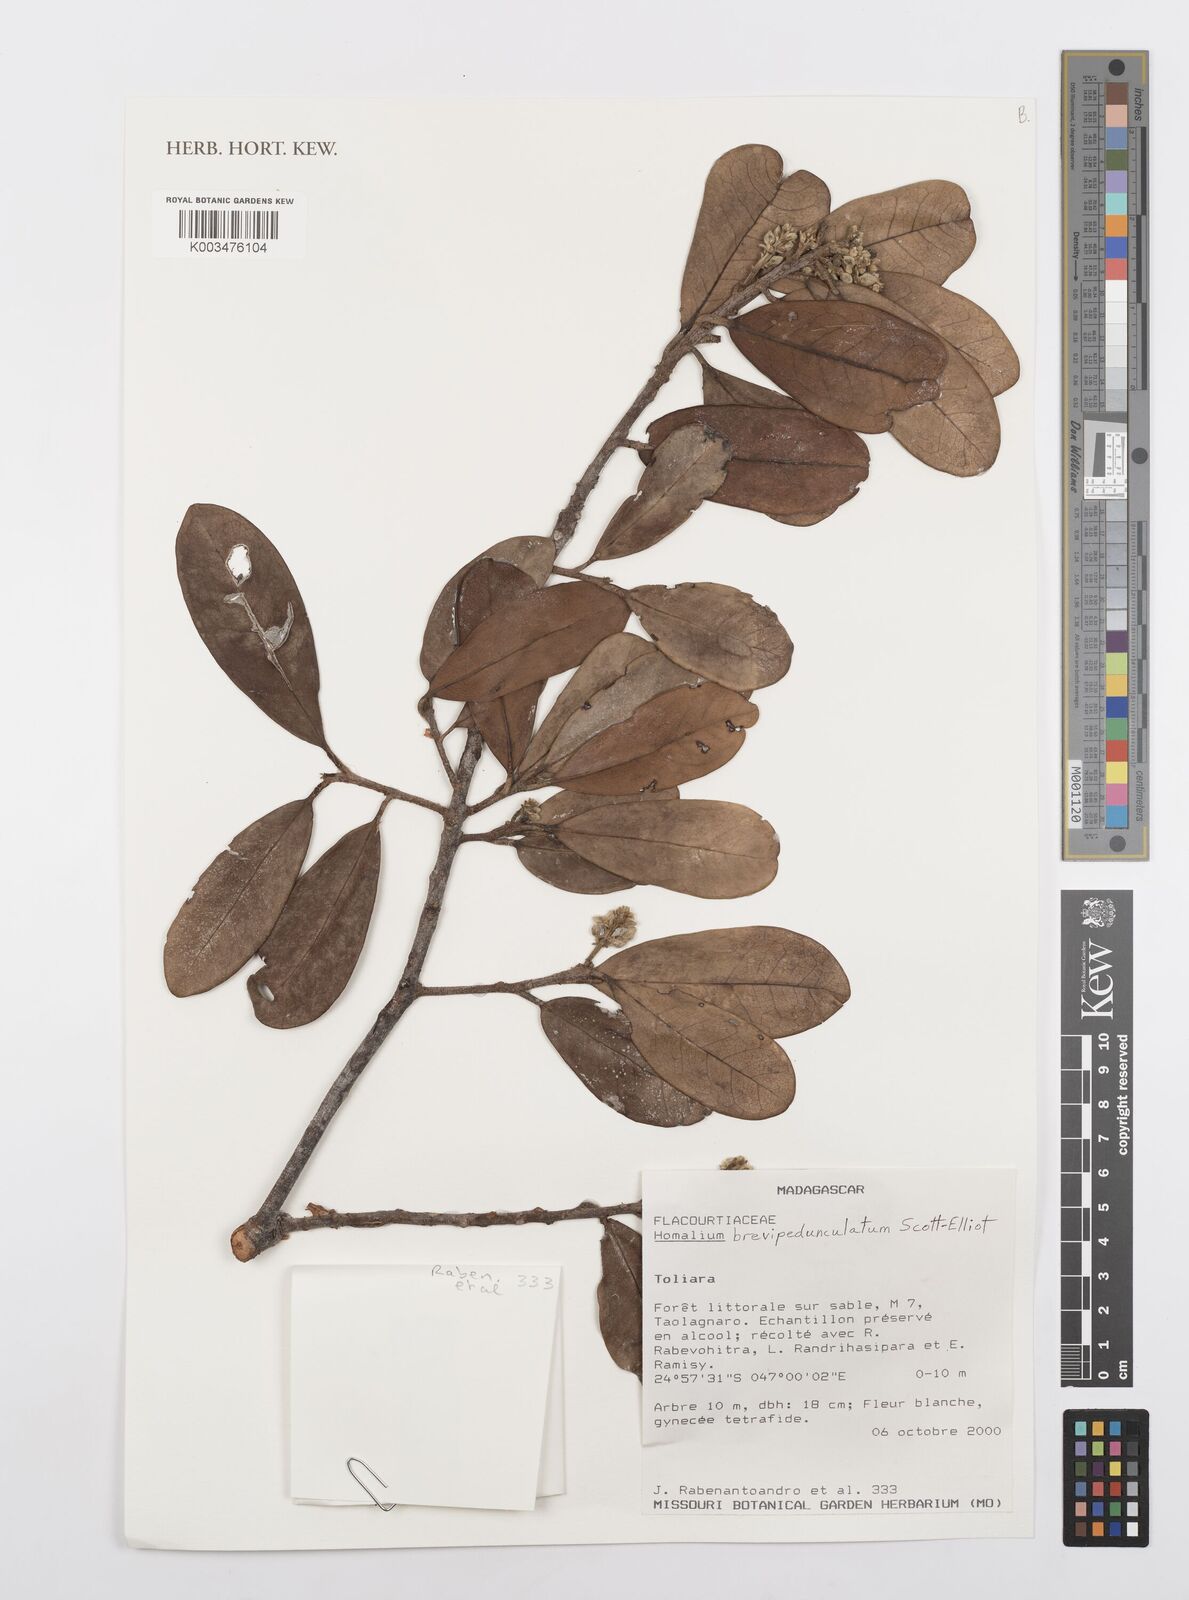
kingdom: Plantae
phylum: Tracheophyta
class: Magnoliopsida
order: Malpighiales
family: Salicaceae
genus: Homalium
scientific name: Homalium brevipedunculatum
